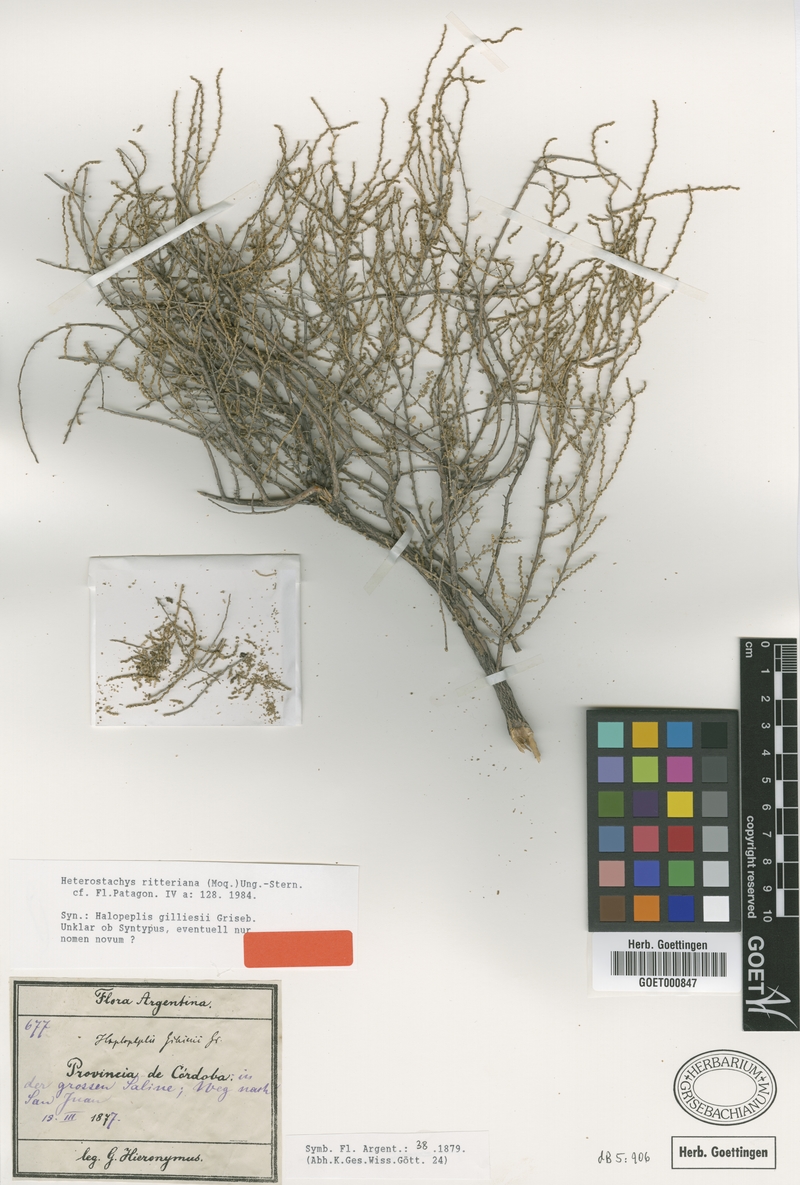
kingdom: Plantae
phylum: Tracheophyta
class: Magnoliopsida
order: Caryophyllales
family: Amaranthaceae
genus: Heterostachys
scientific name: Heterostachys ritteriana
